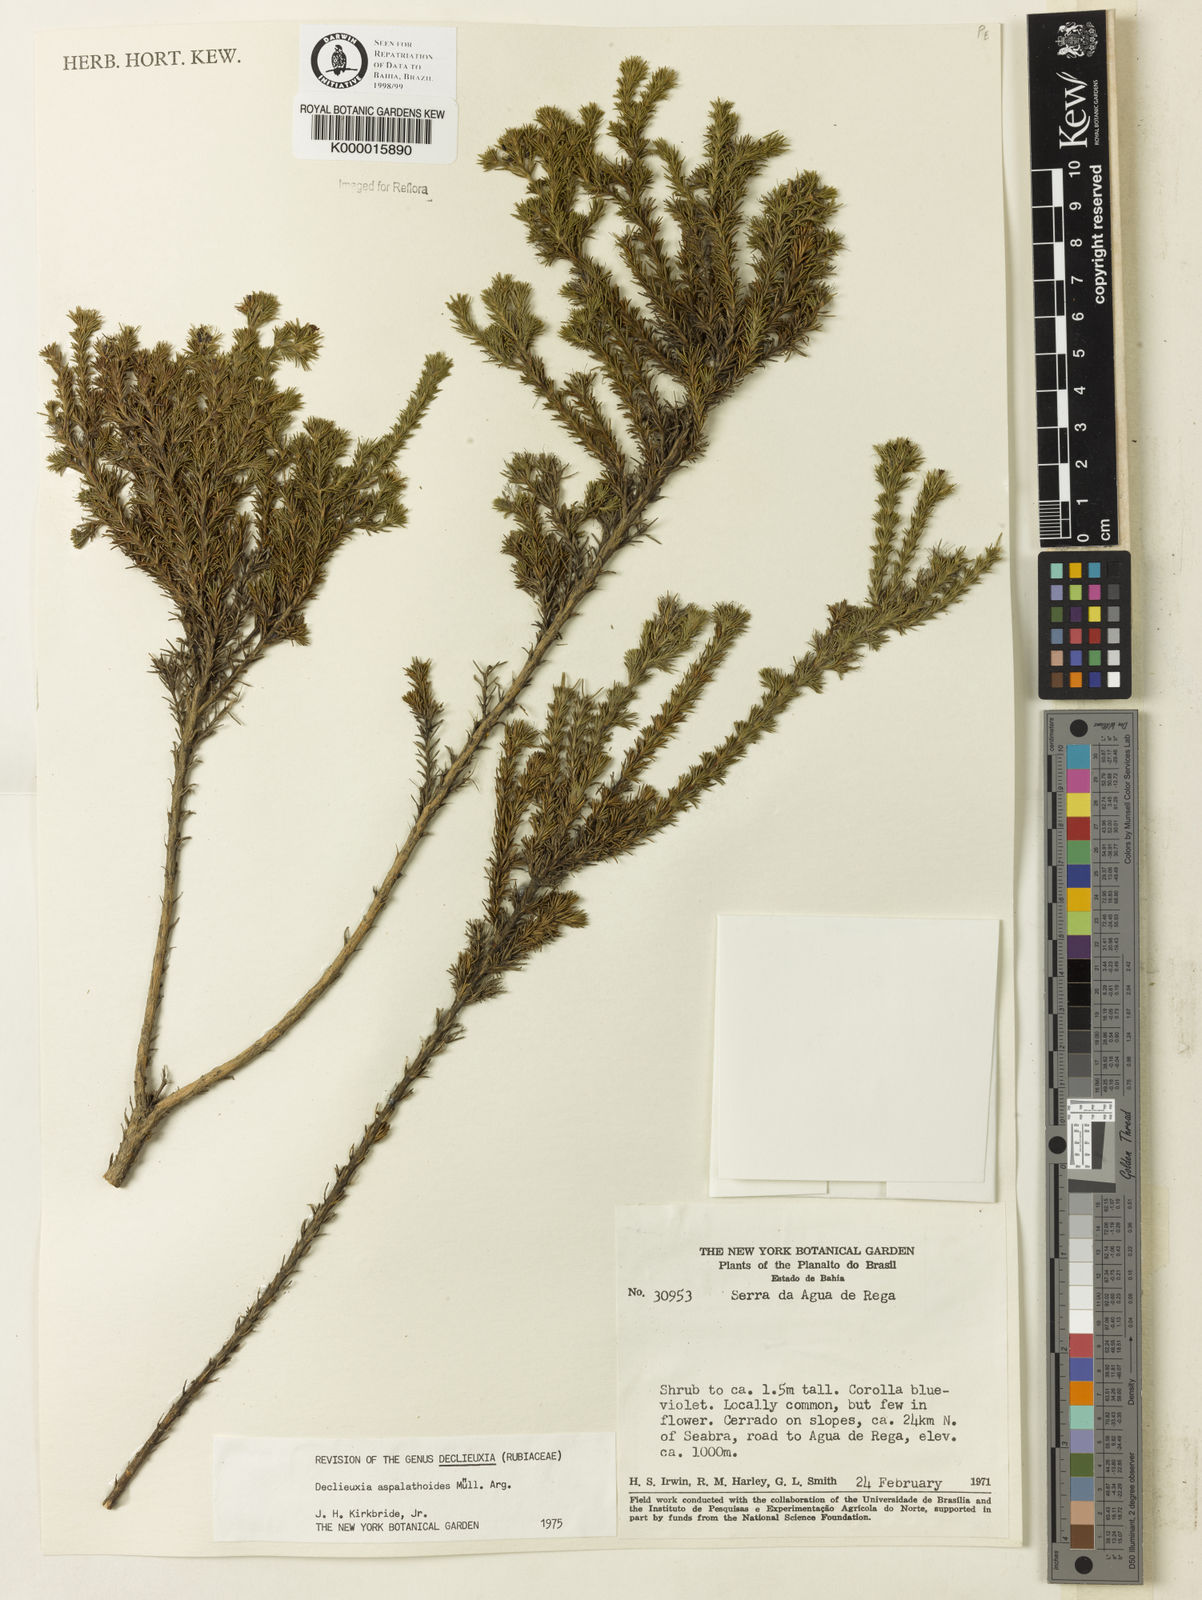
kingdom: Plantae
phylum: Tracheophyta
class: Magnoliopsida
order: Gentianales
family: Rubiaceae
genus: Declieuxia
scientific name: Declieuxia aspalathoides
